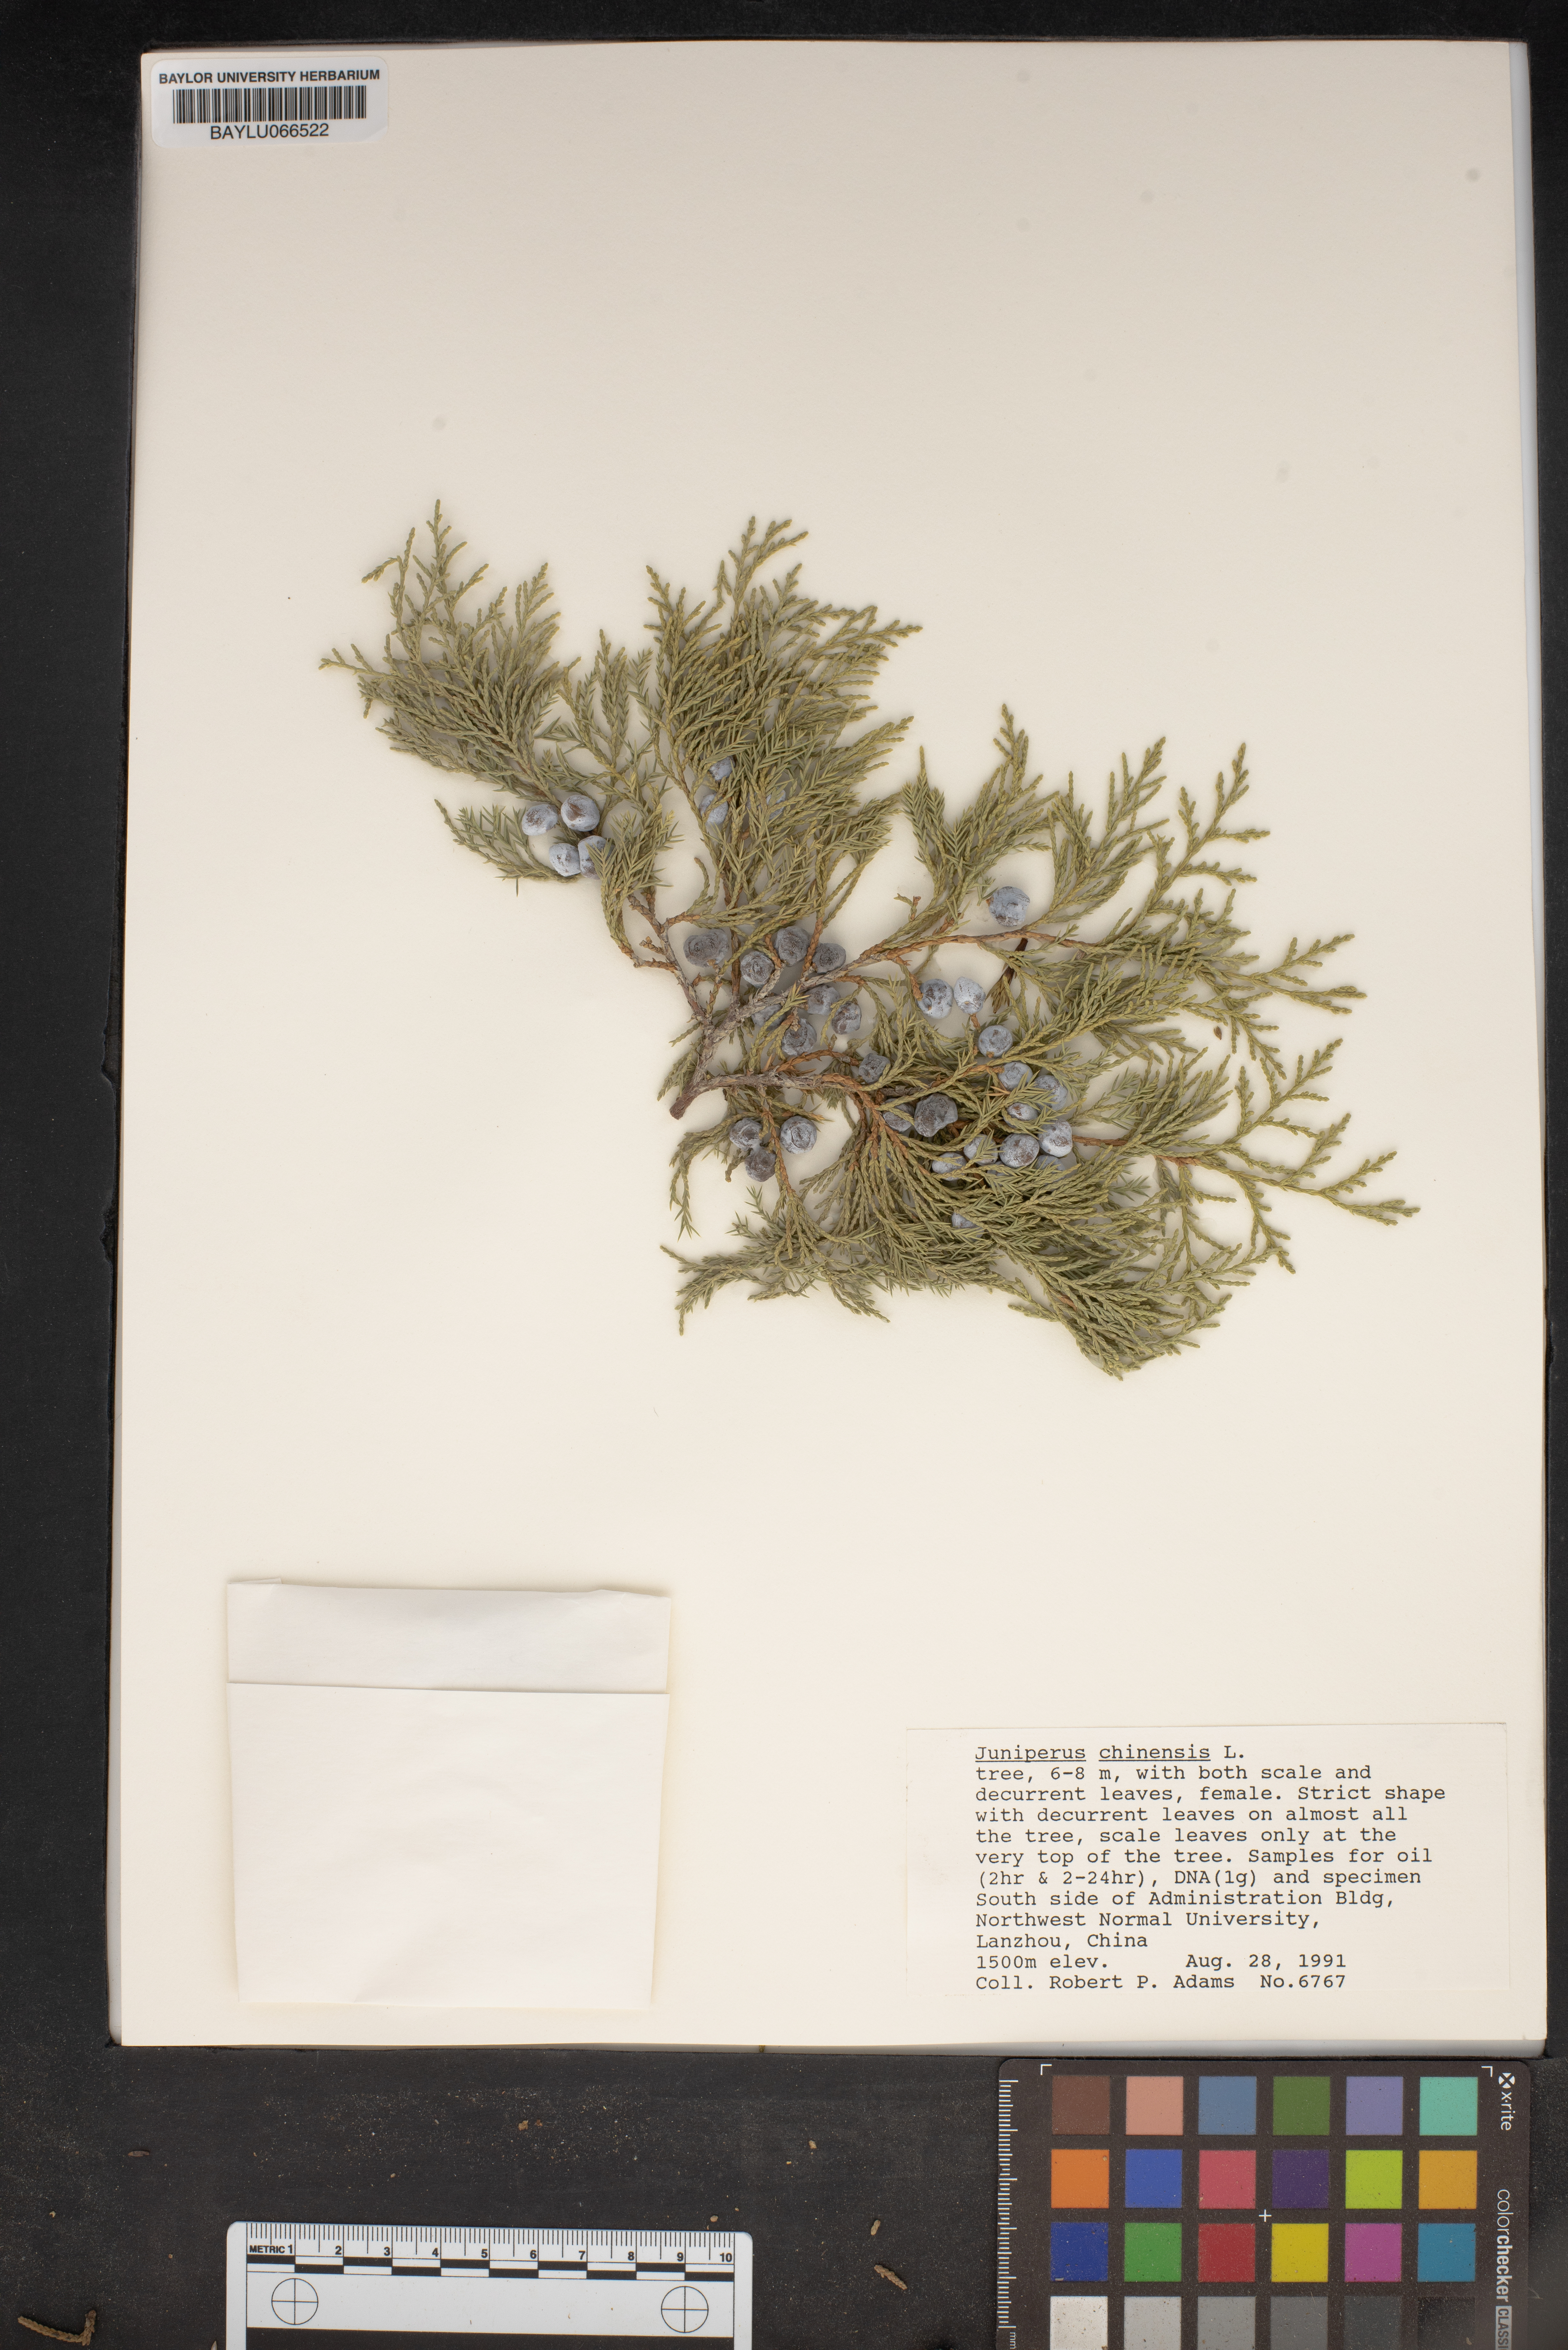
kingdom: Plantae
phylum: Tracheophyta
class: Pinopsida
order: Pinales
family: Cupressaceae
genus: Juniperus
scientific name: Juniperus chinensis
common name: Chinese juniper
